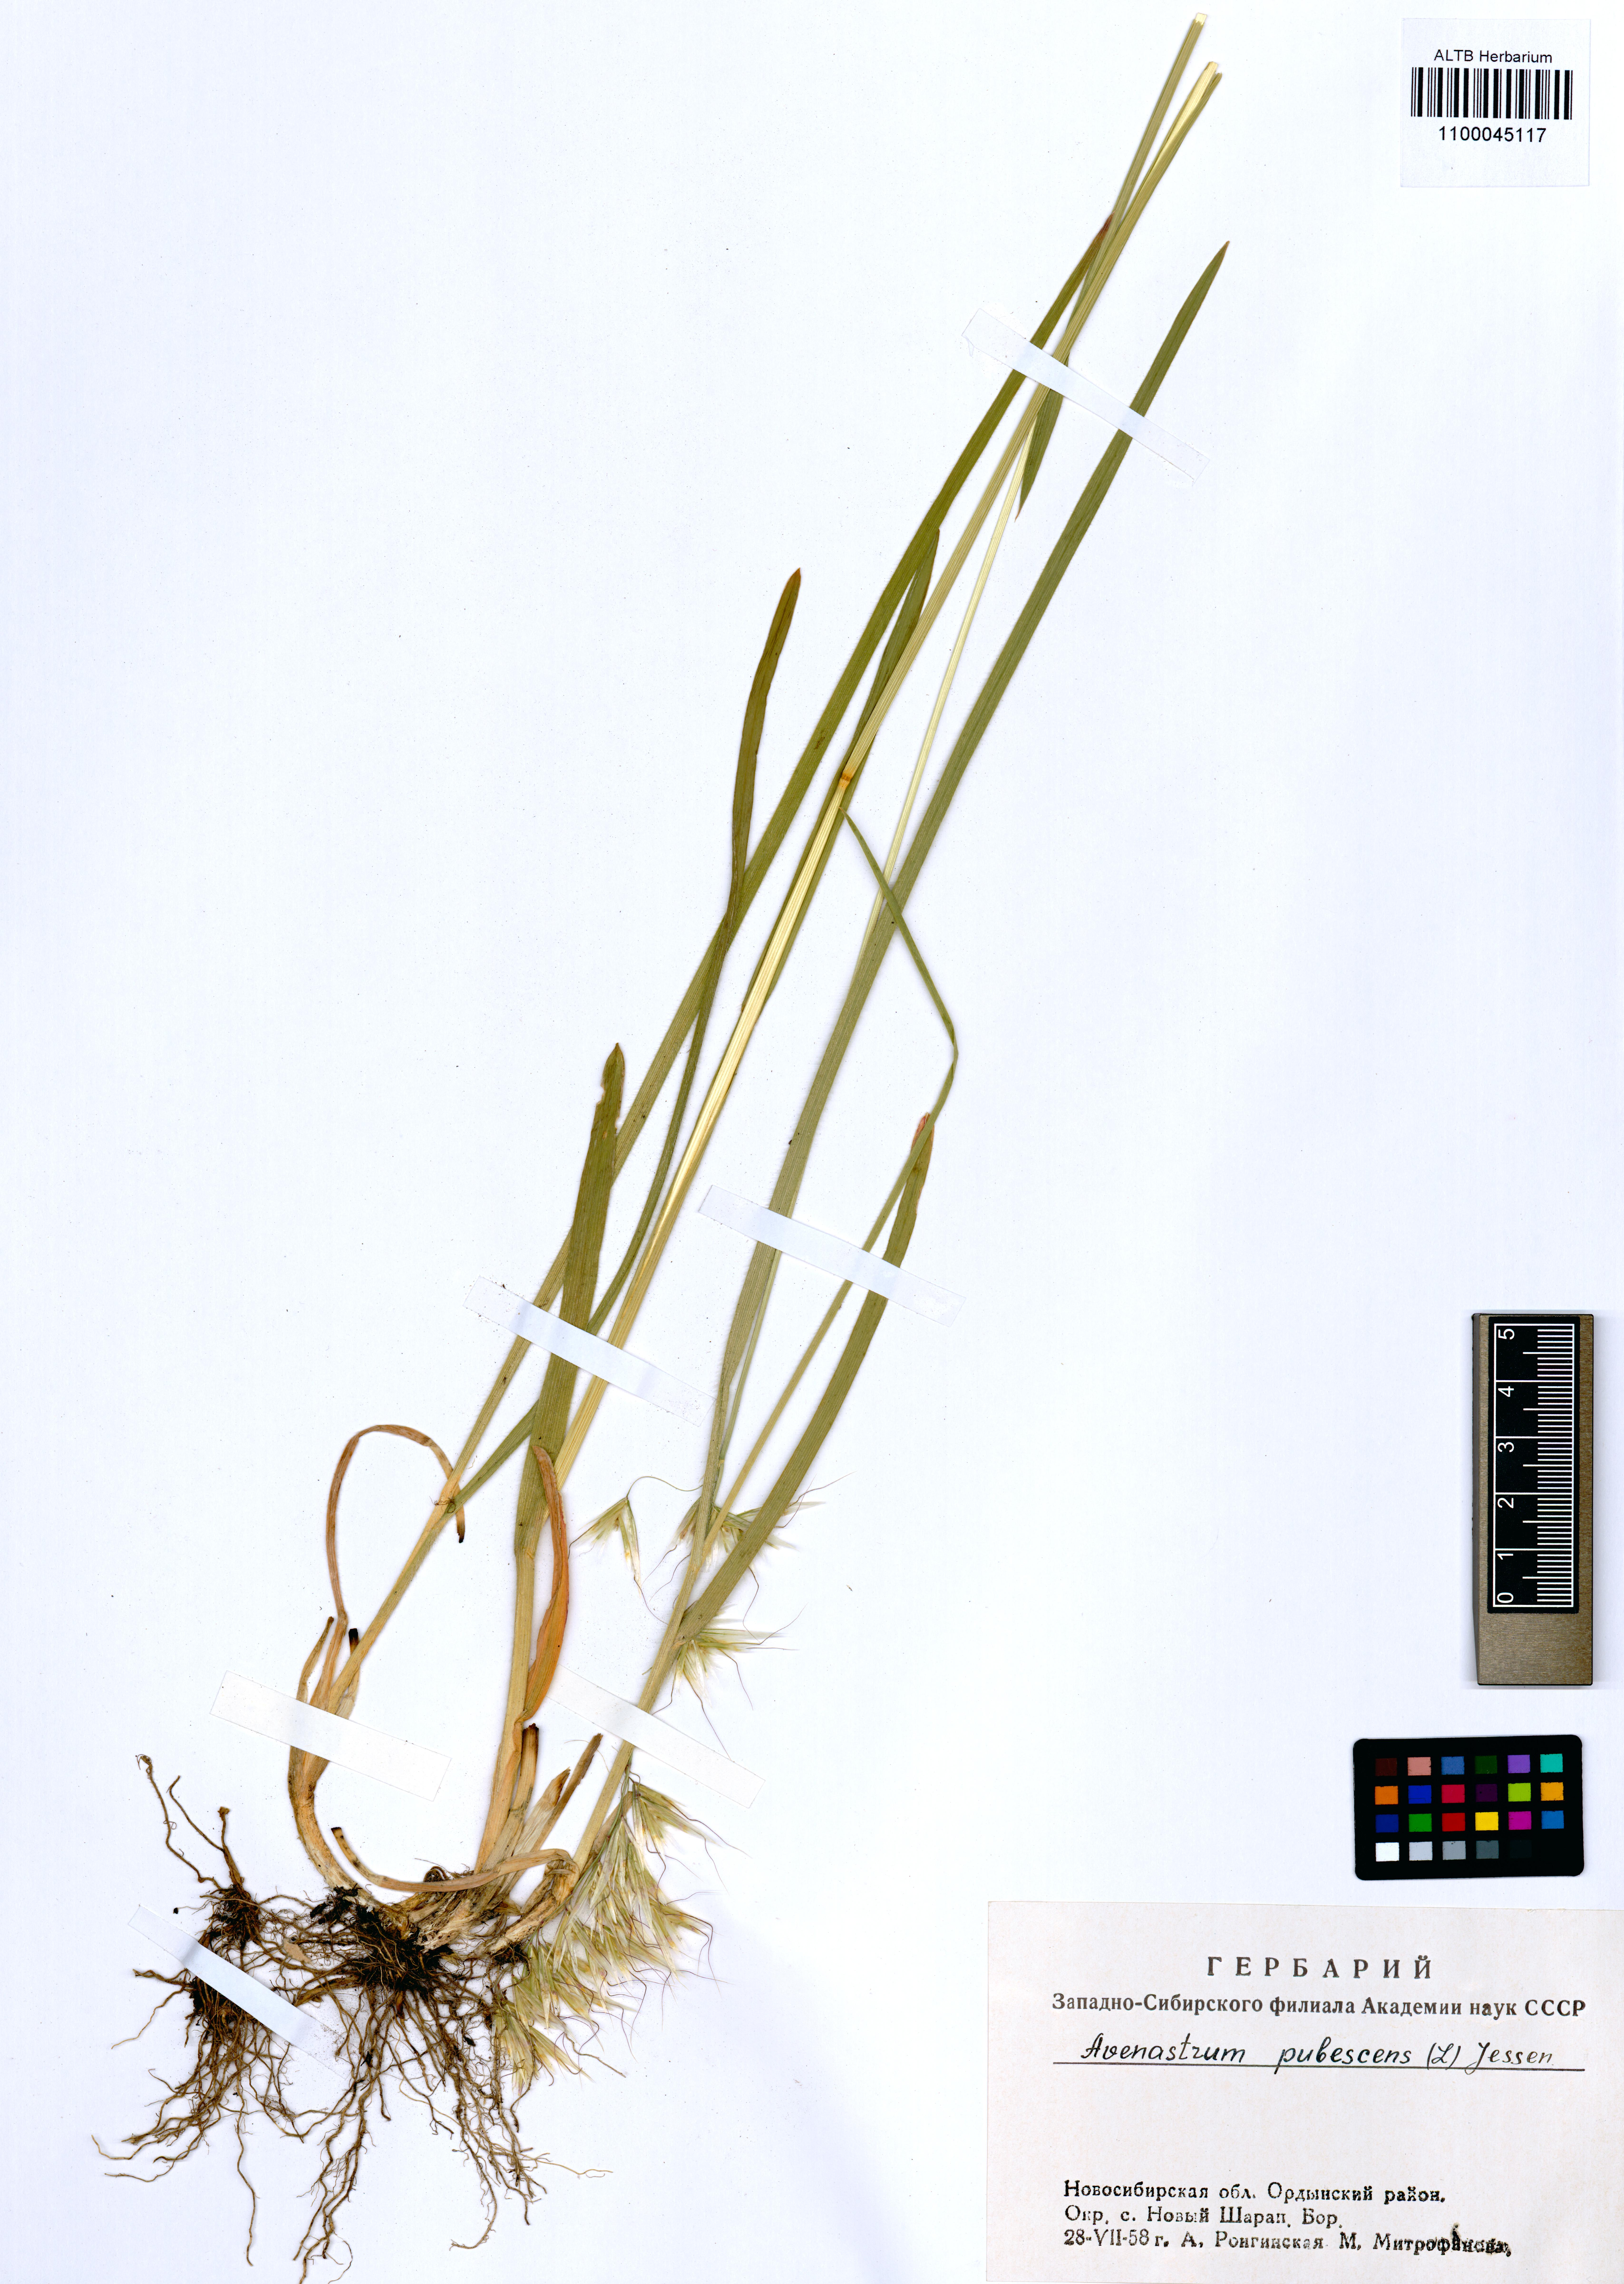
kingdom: Plantae
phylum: Tracheophyta
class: Liliopsida
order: Poales
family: Poaceae
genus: Avenula
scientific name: Avenula pubescens
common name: Downy alpine oatgrass
